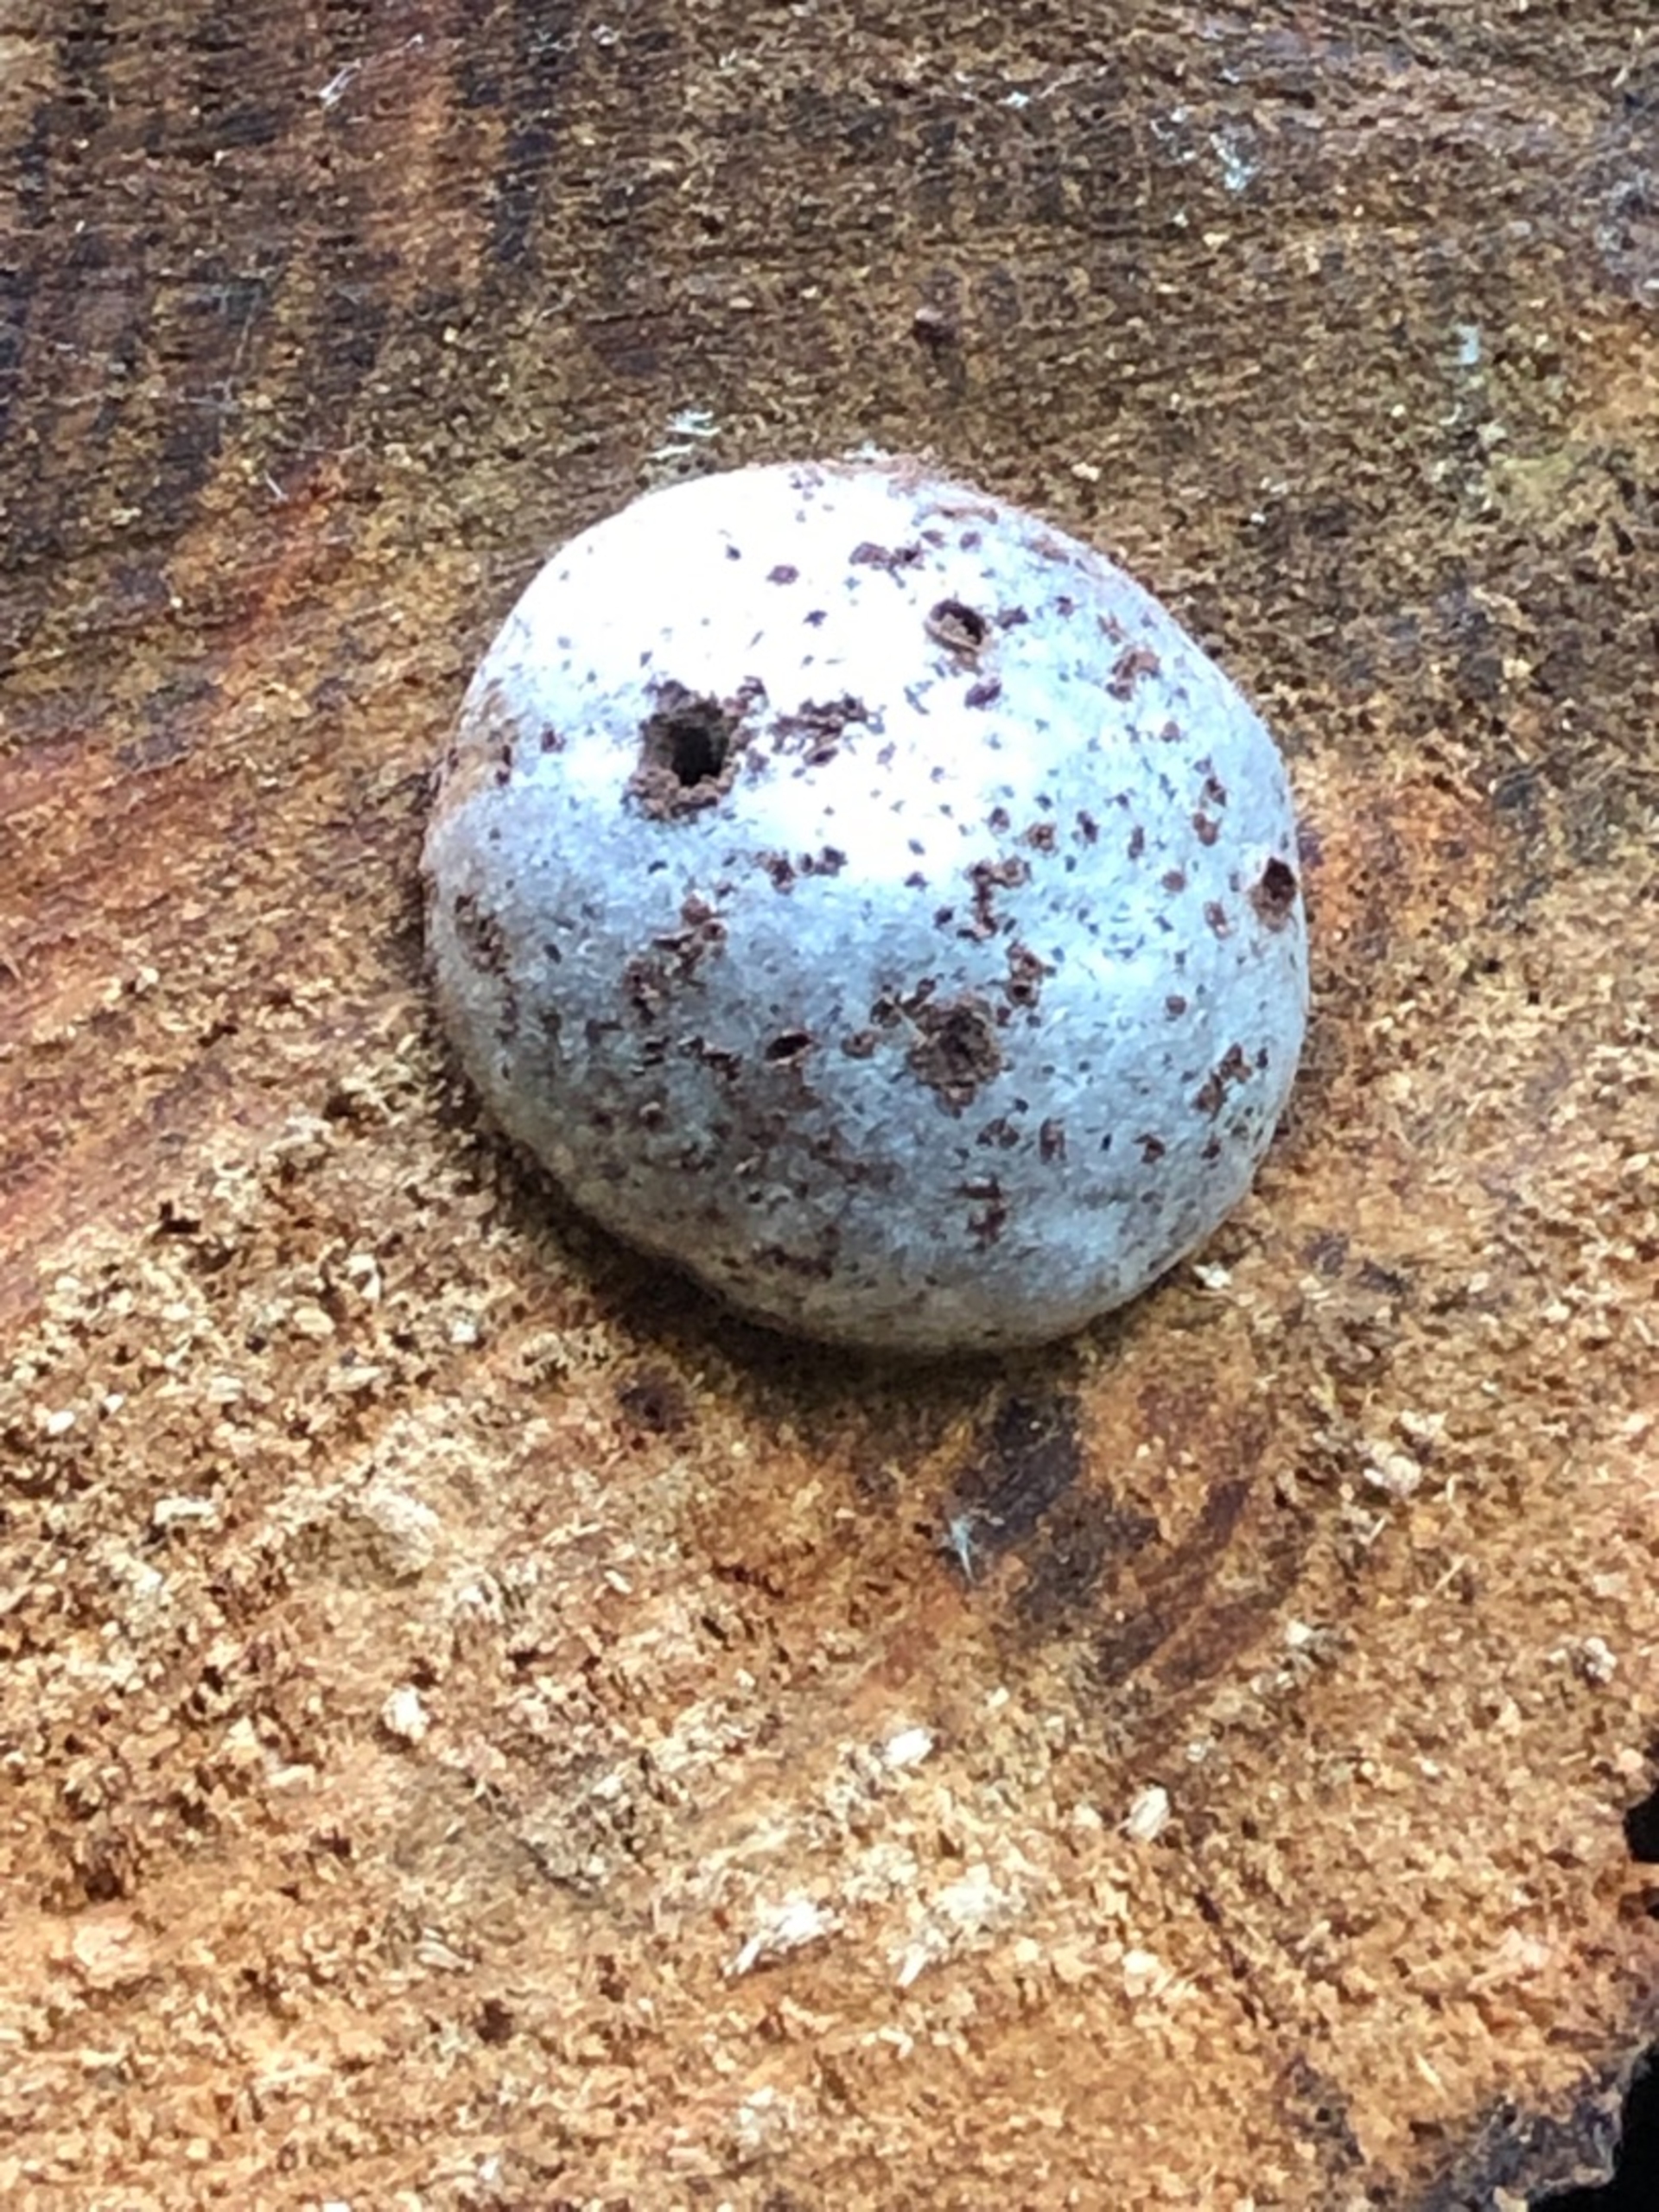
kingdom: Protozoa
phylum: Mycetozoa
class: Myxomycetes
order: Cribrariales
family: Tubiferaceae
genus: Reticularia
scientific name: Reticularia lycoperdon
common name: Skinnende støvpude
